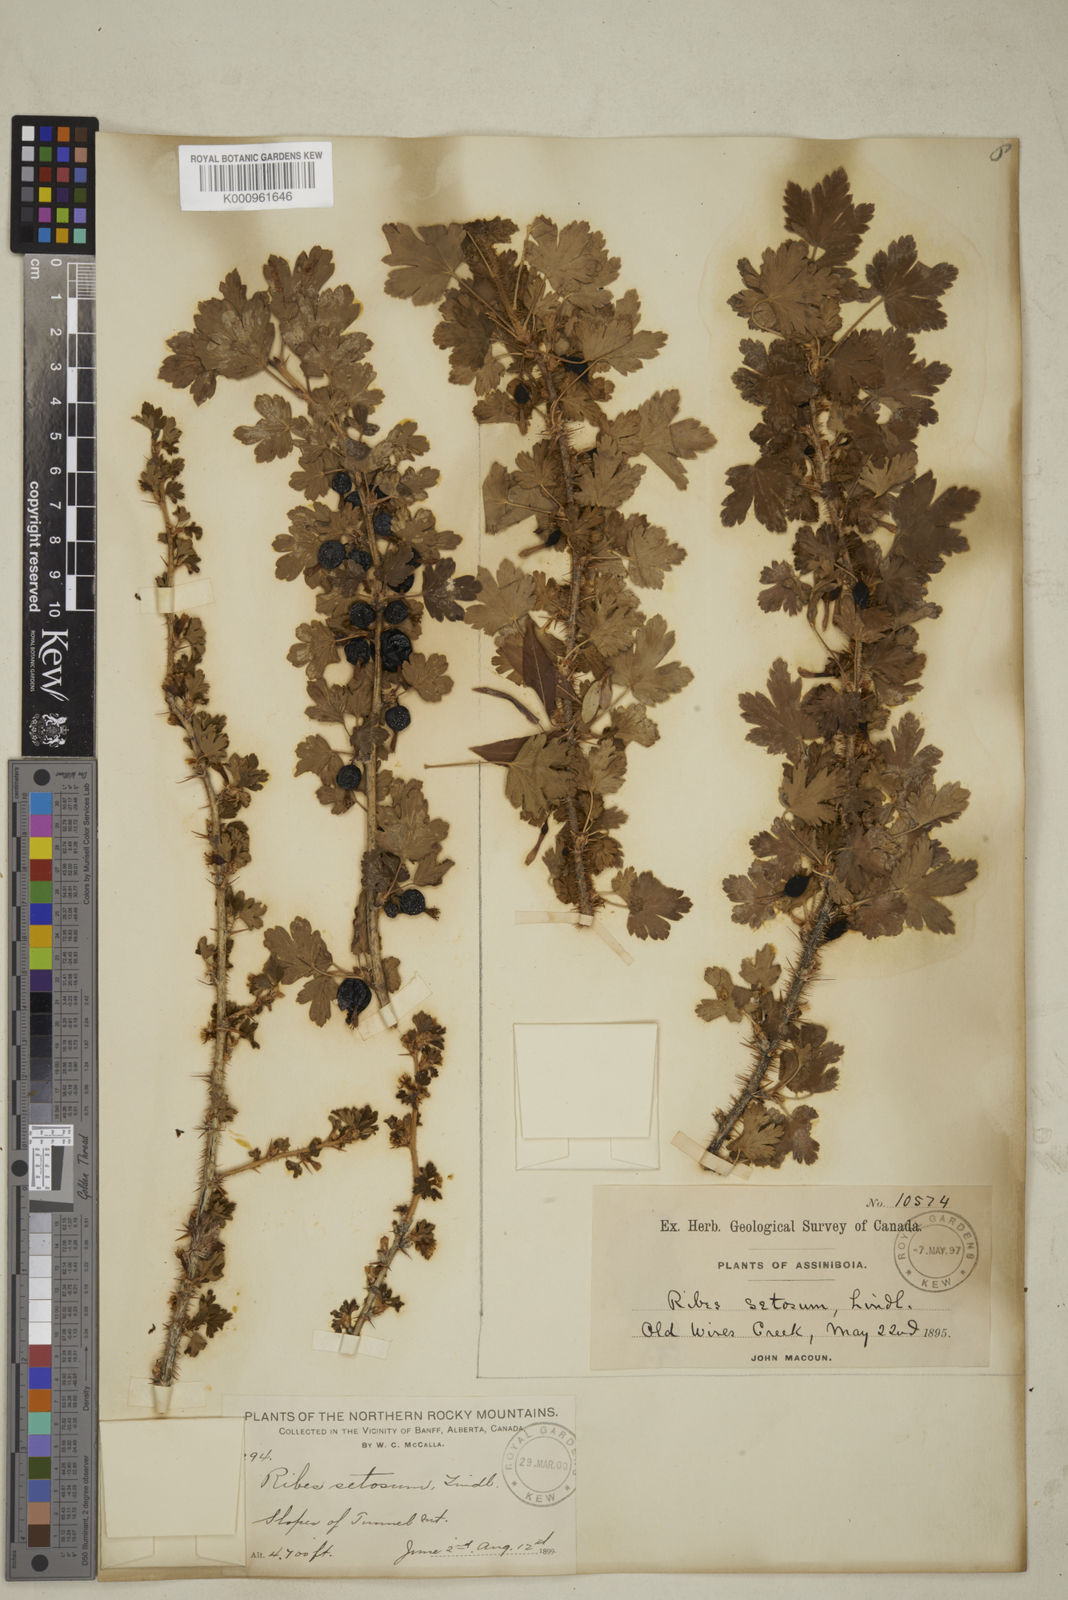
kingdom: Plantae
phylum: Tracheophyta
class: Magnoliopsida
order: Saxifragales
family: Grossulariaceae
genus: Ribes
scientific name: Ribes oxyacanthoides
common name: Northern gooseberry
